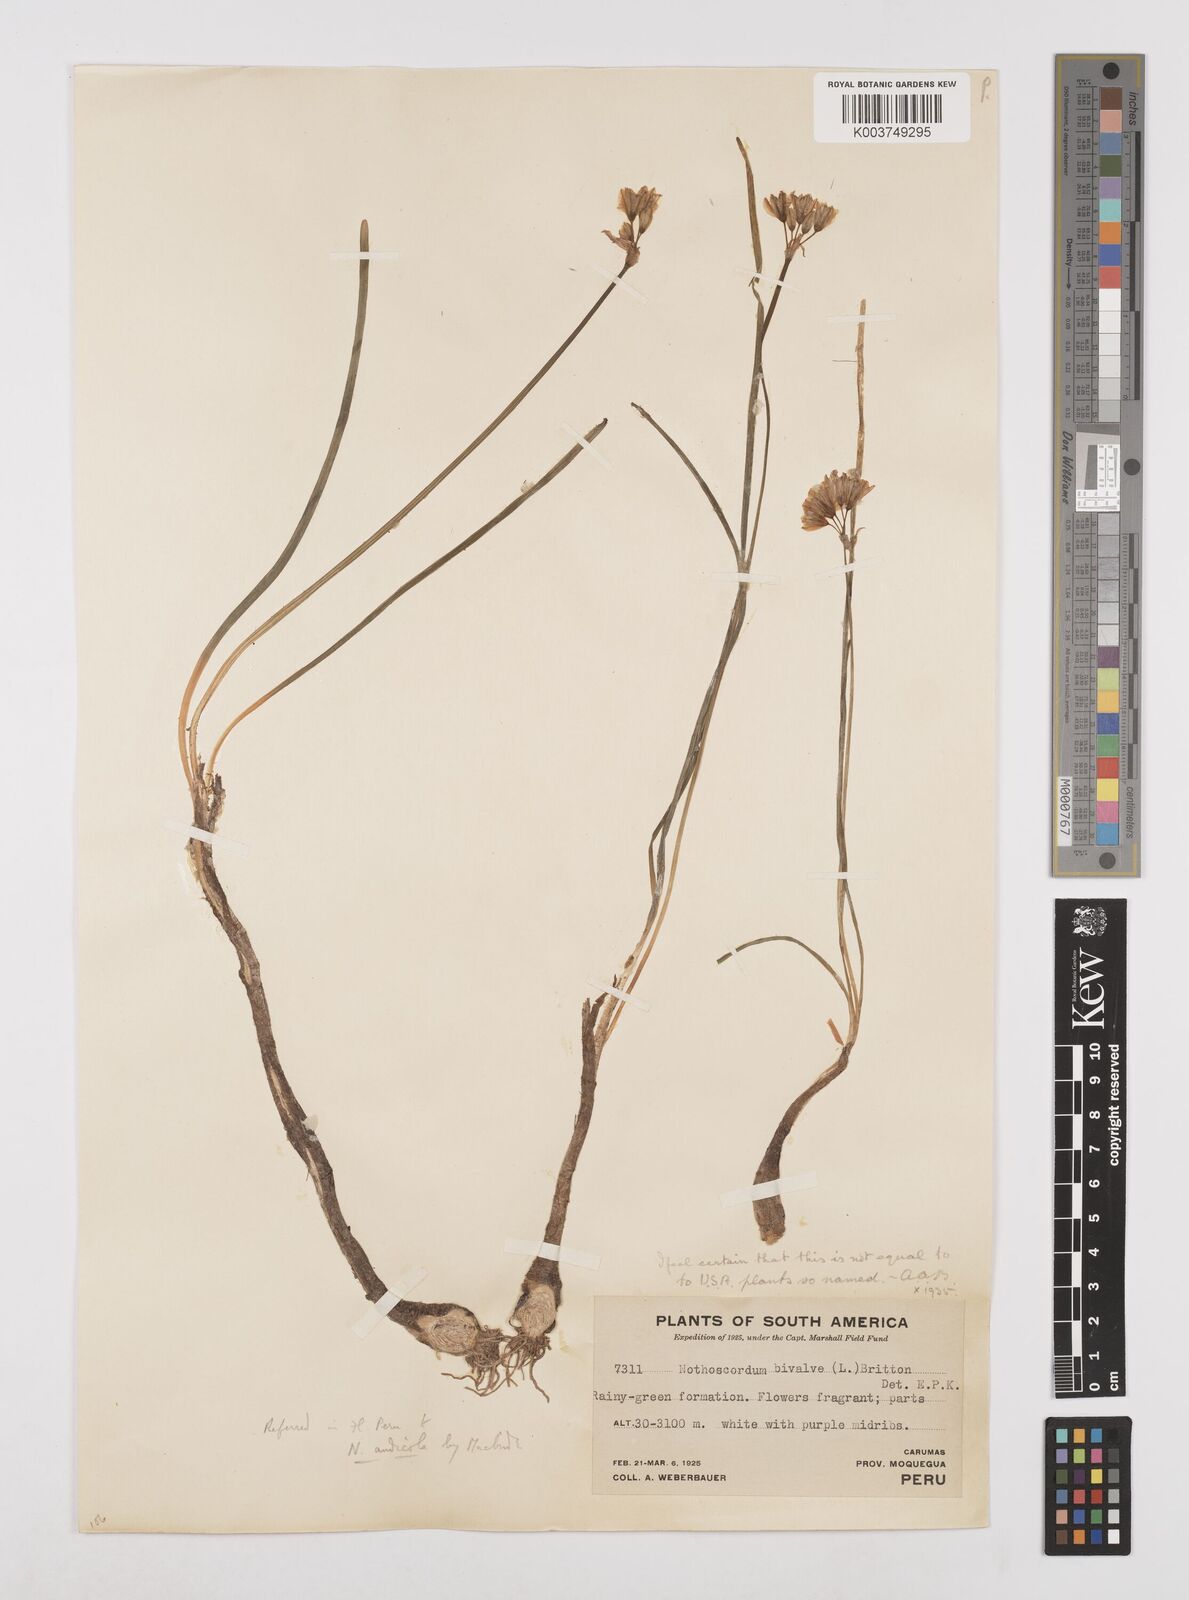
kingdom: Plantae
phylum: Tracheophyta
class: Liliopsida
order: Asparagales
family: Amaryllidaceae
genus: Nothoscordum
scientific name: Nothoscordum andicola
